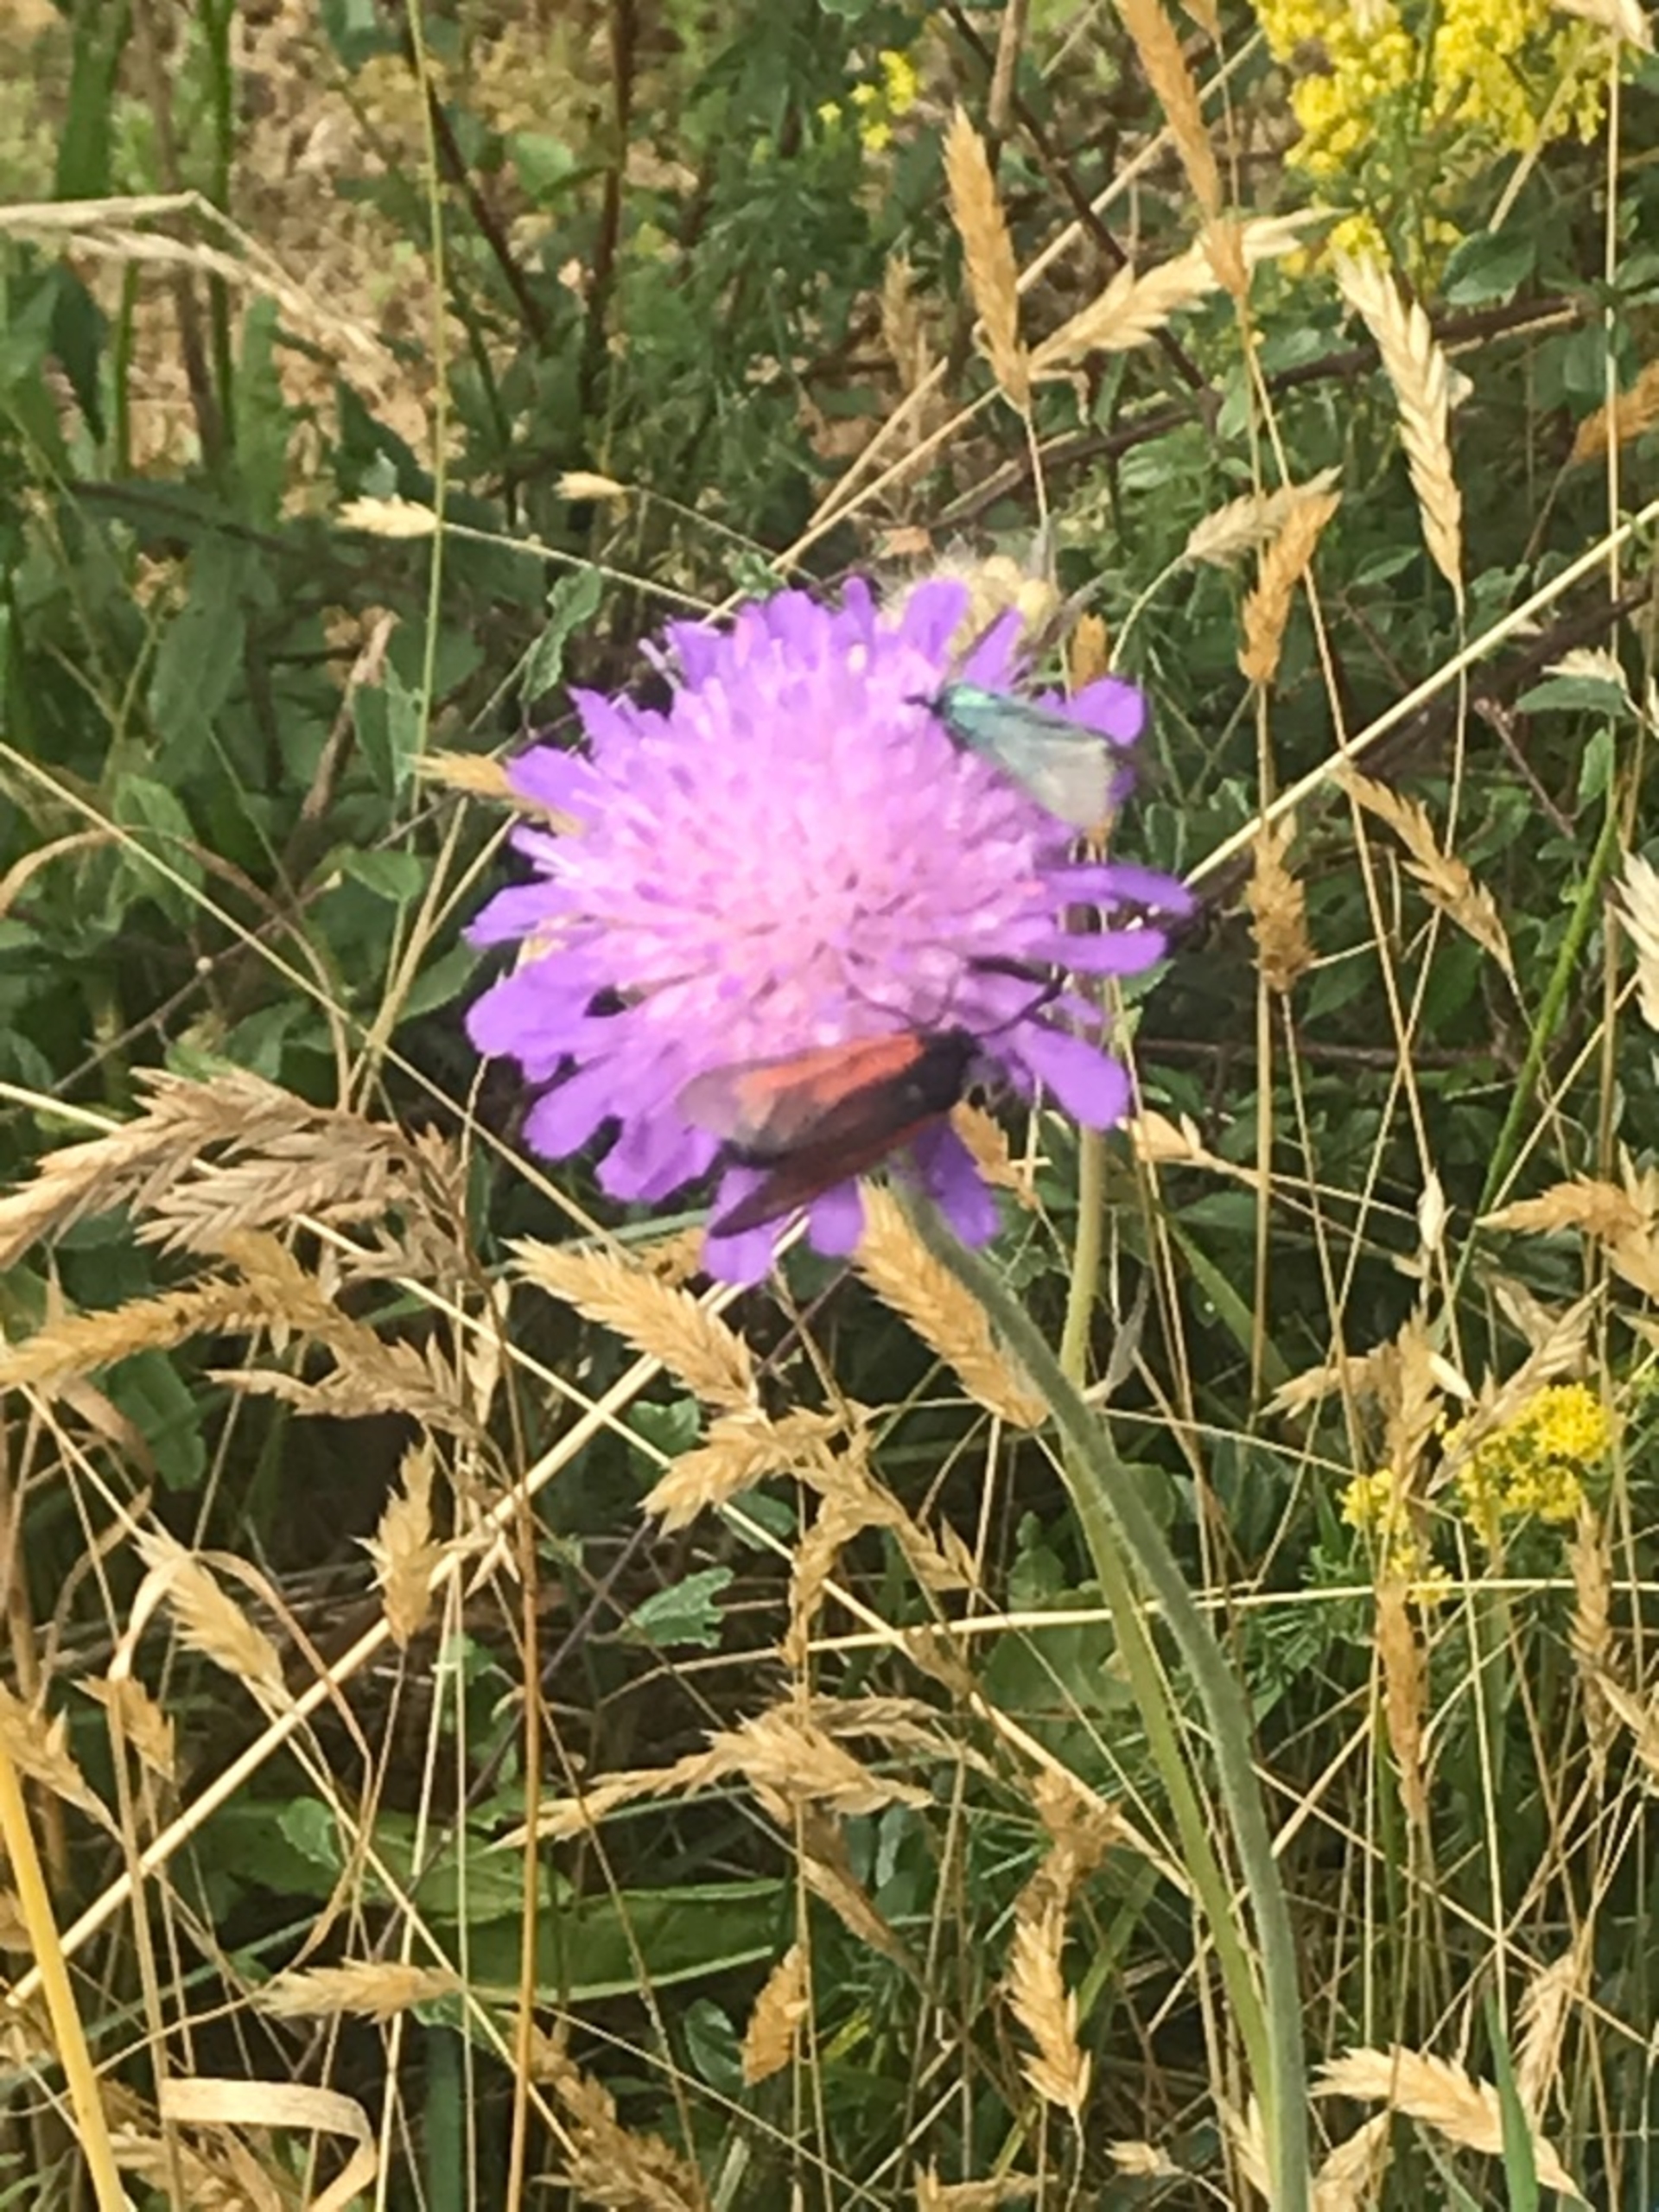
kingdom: Animalia
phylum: Arthropoda
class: Insecta
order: Lepidoptera
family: Zygaenidae
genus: Zygaena
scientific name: Zygaena minos
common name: Pimpernelkøllesværmer
